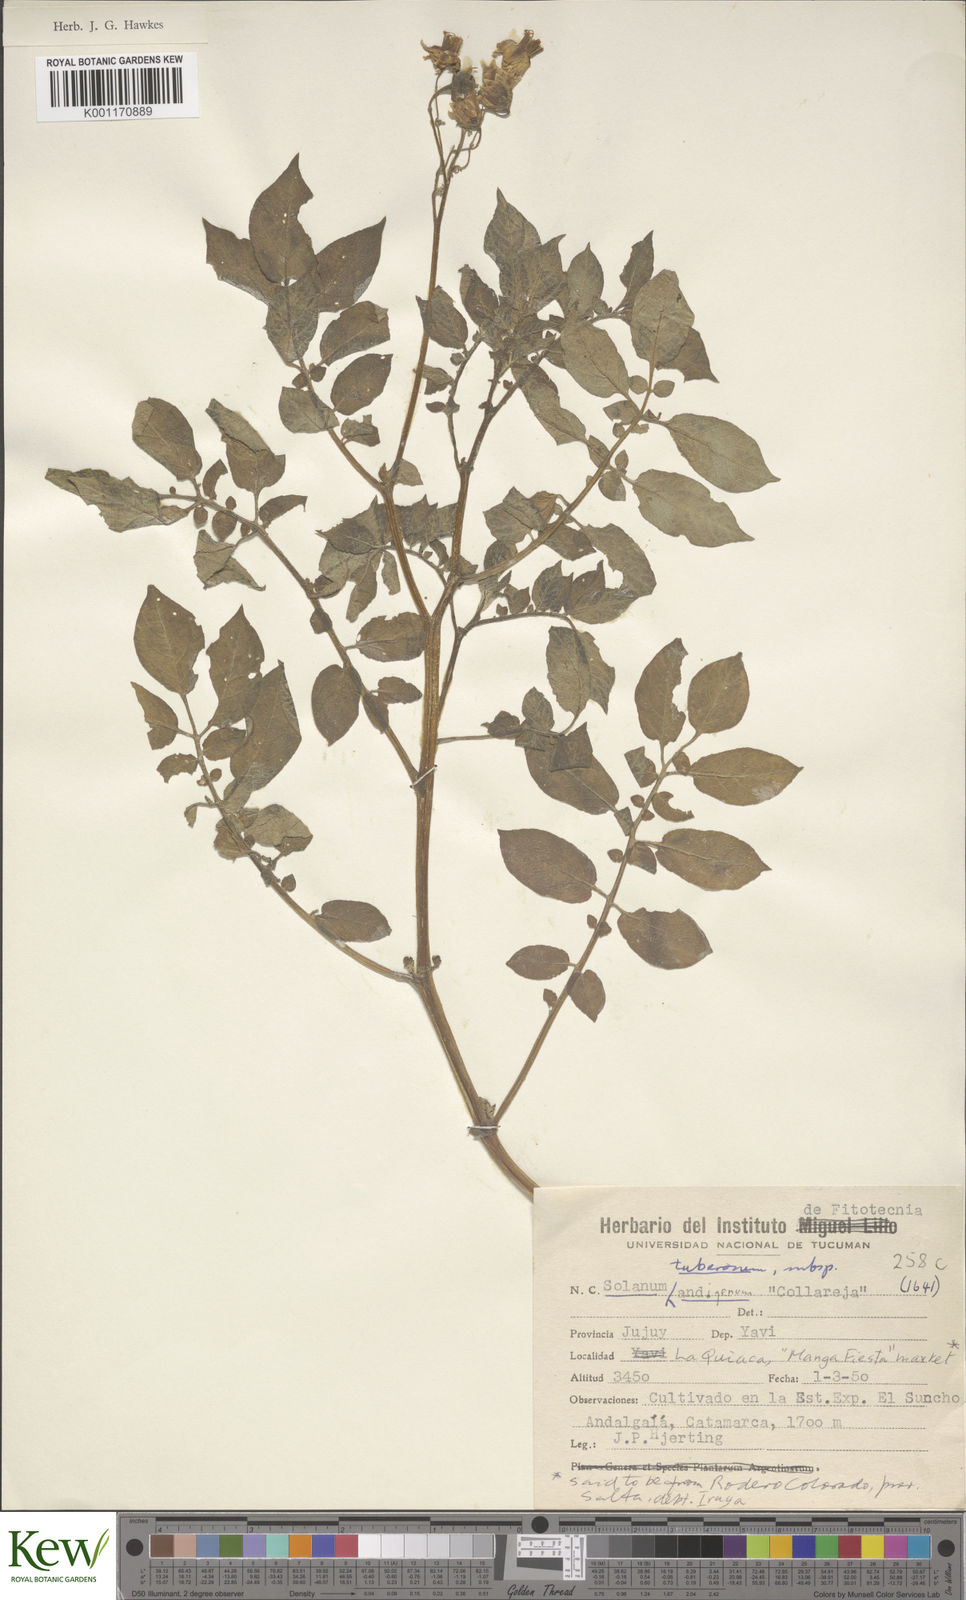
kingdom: Plantae
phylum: Tracheophyta
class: Magnoliopsida
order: Solanales
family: Solanaceae
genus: Solanum
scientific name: Solanum tuberosum
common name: Potato
